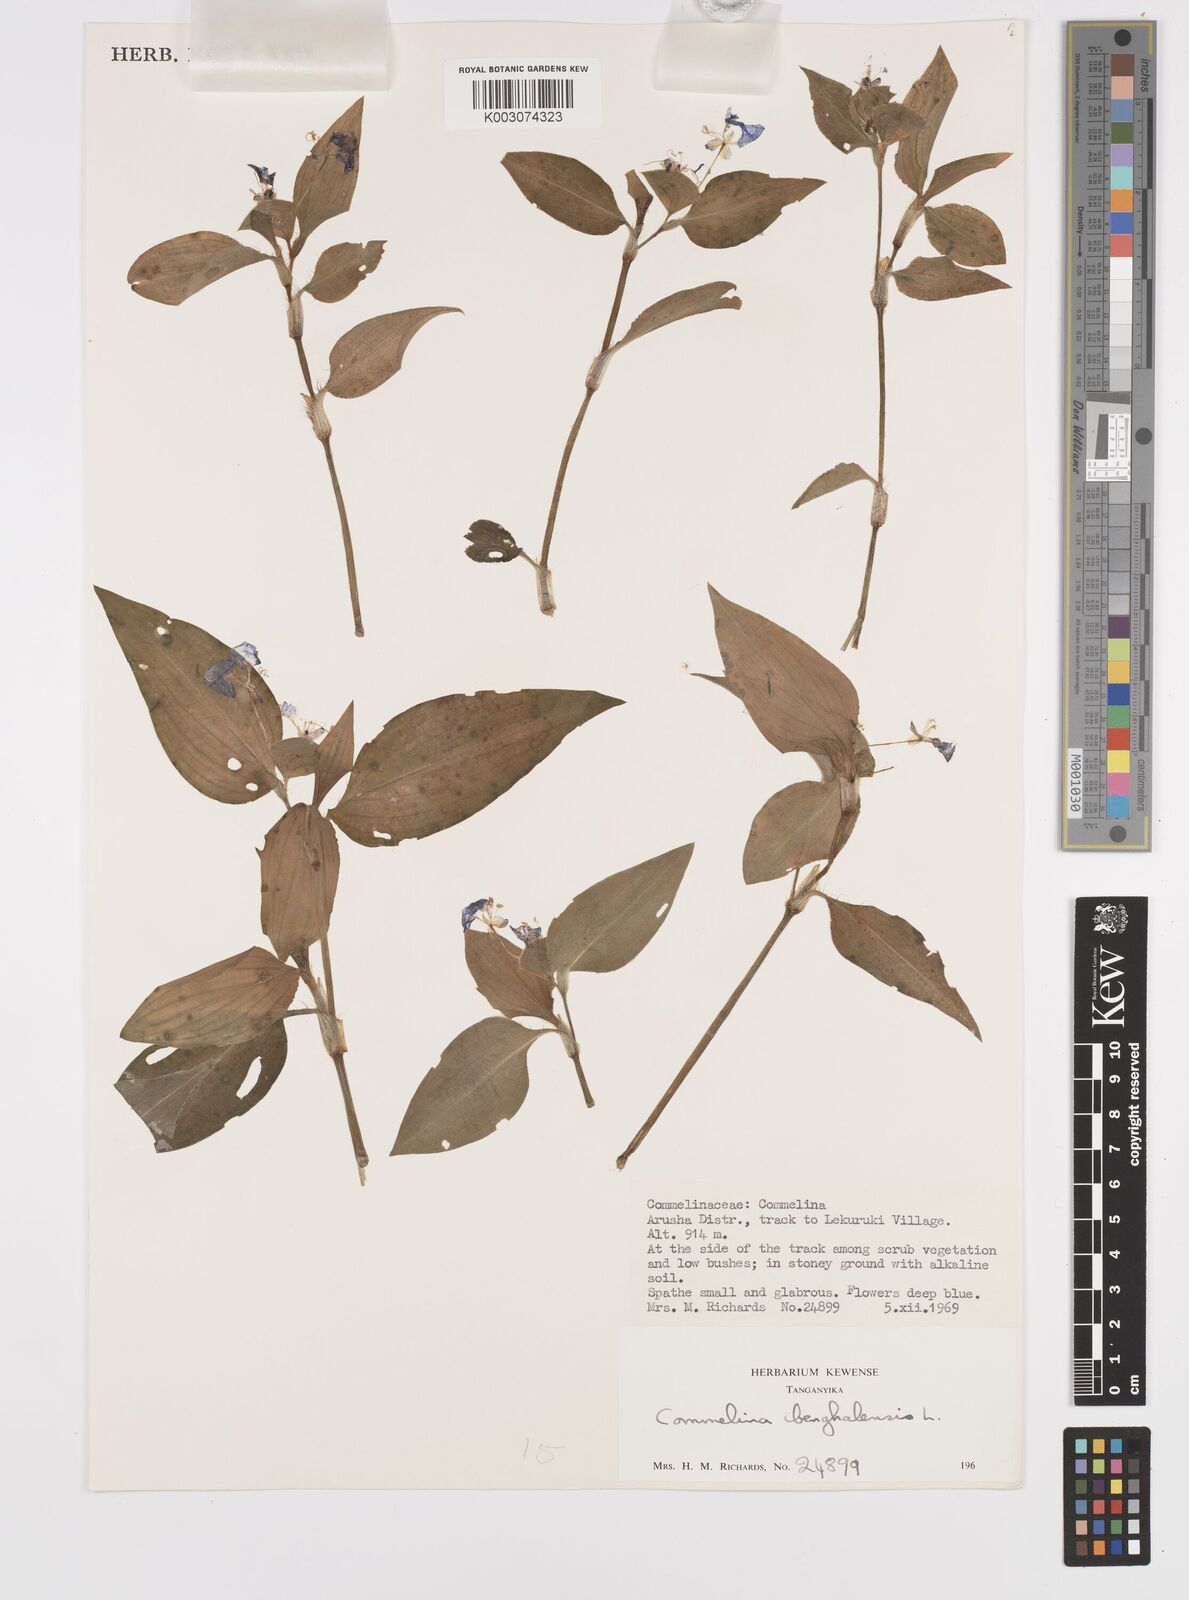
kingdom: Plantae
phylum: Tracheophyta
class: Liliopsida
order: Commelinales
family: Commelinaceae
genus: Commelina
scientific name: Commelina benghalensis
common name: Jio
